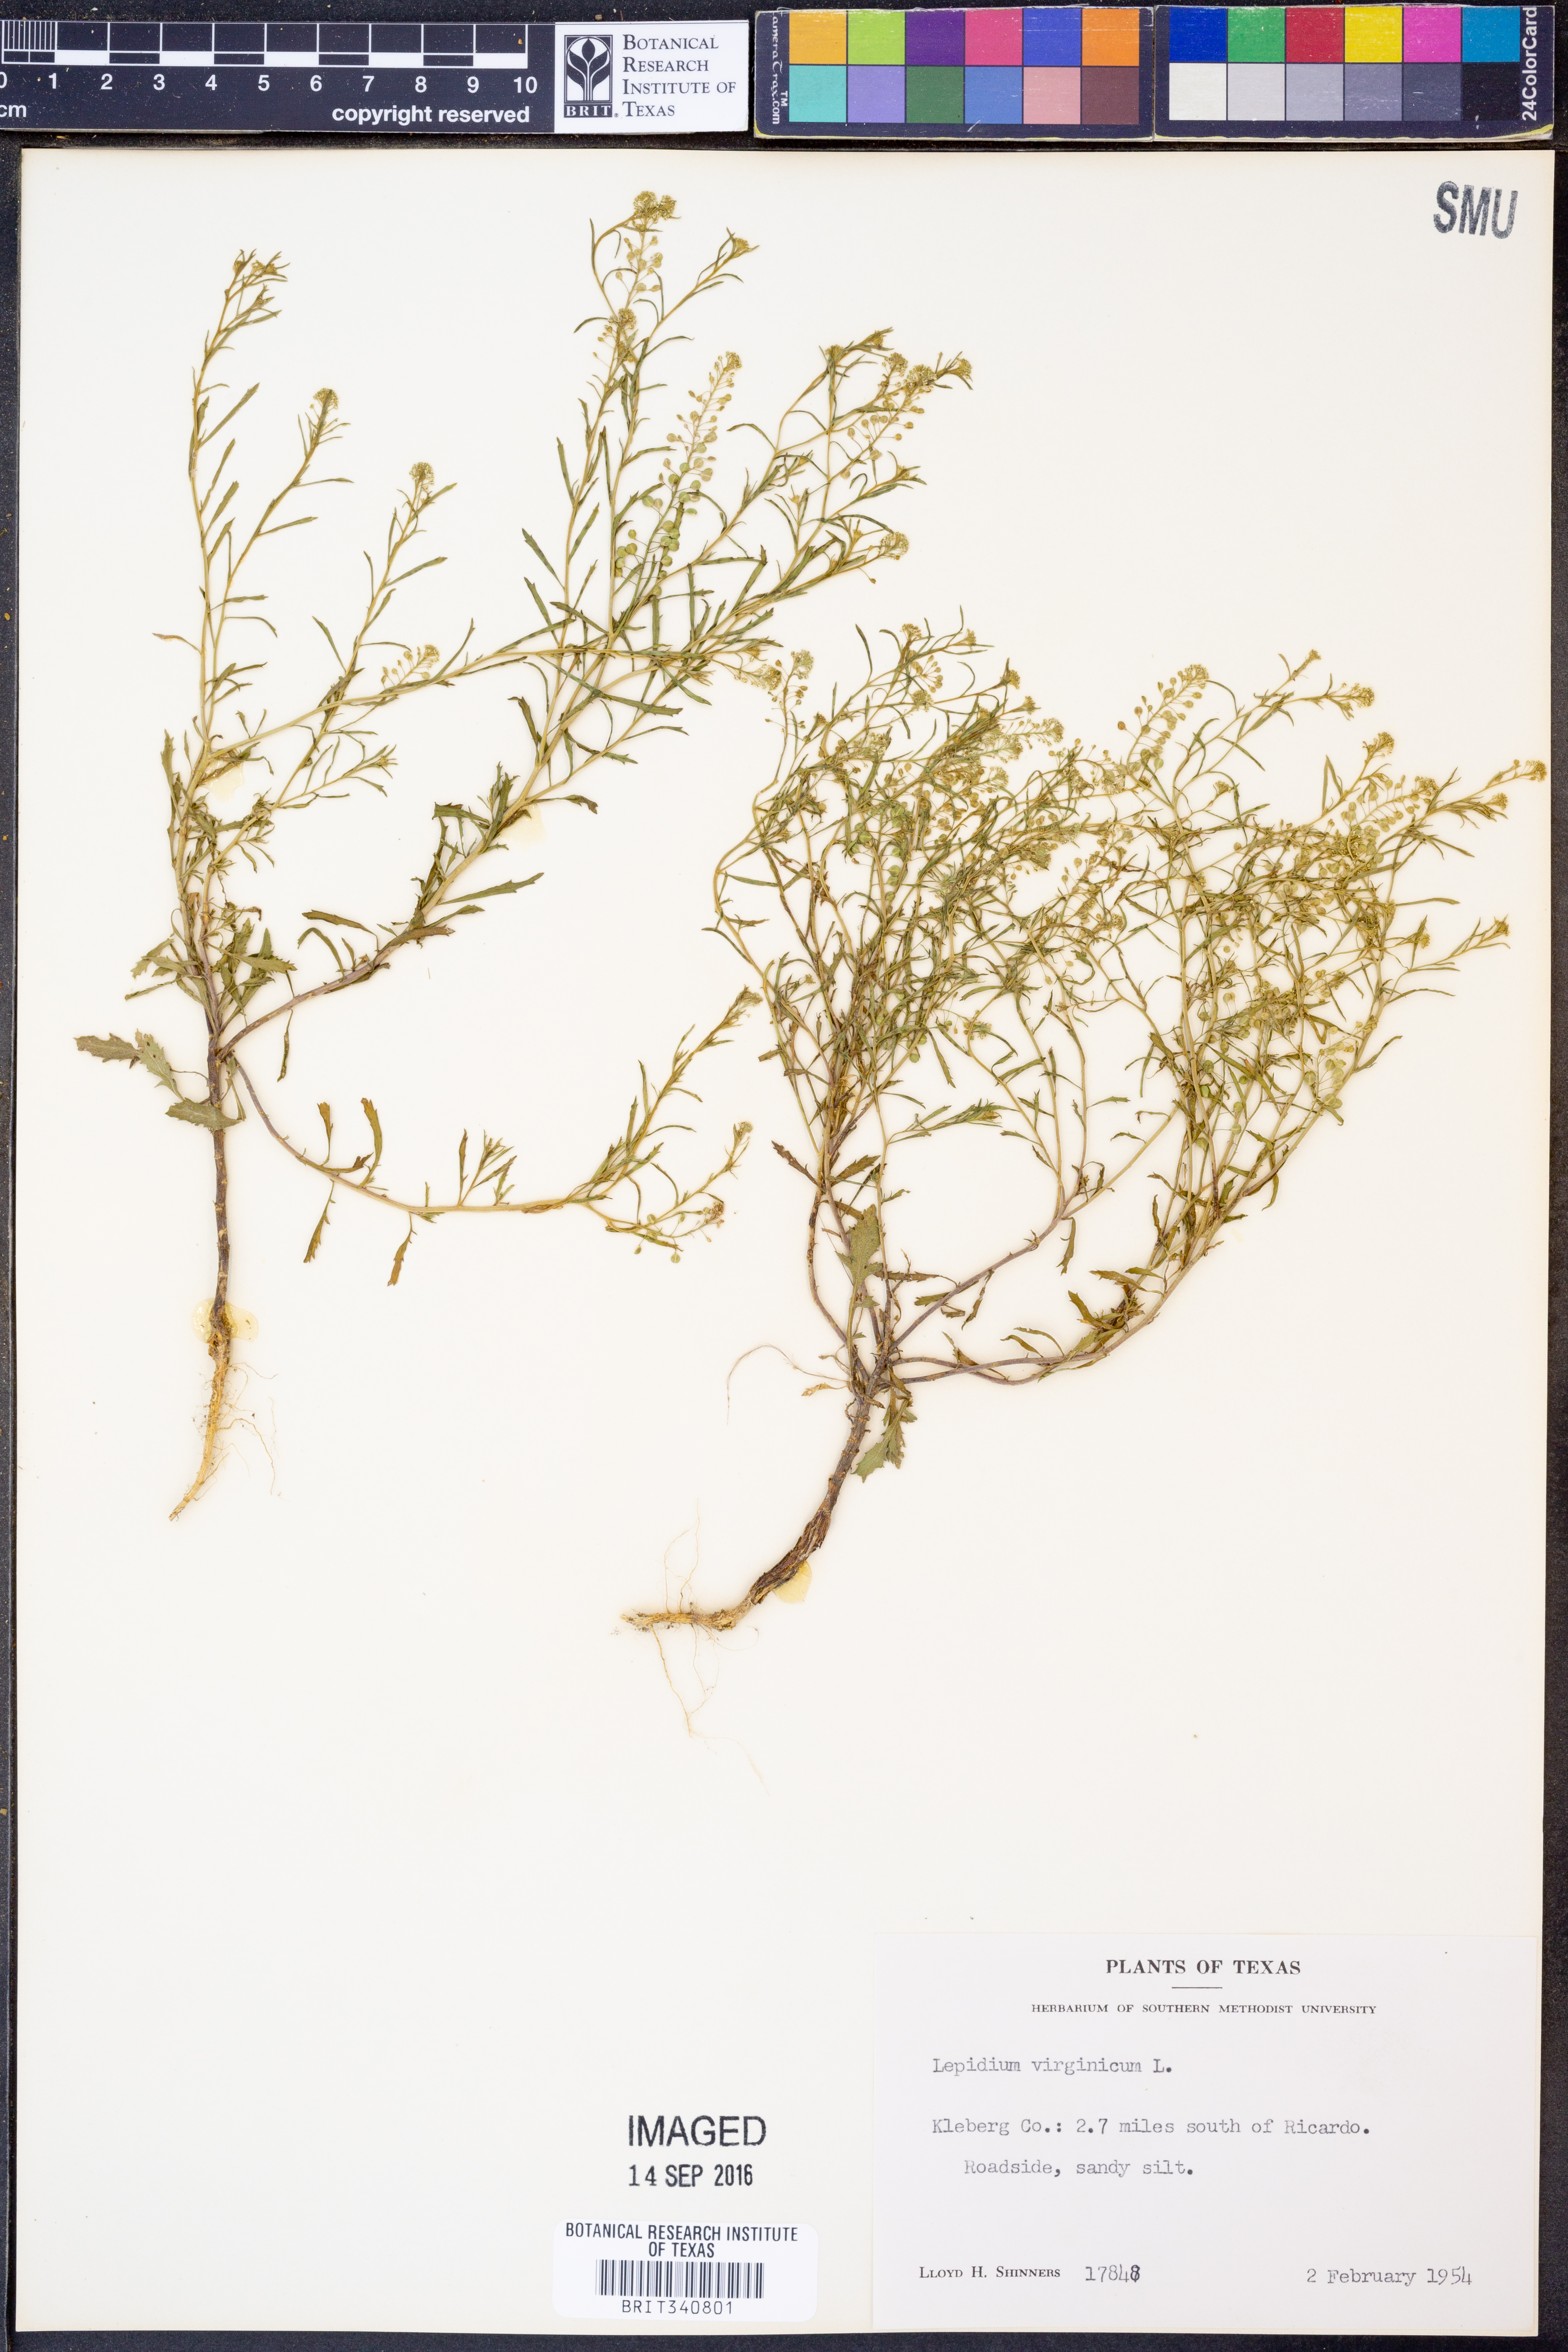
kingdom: Plantae
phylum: Tracheophyta
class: Magnoliopsida
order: Brassicales
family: Brassicaceae
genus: Lepidium
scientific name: Lepidium virginicum
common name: Least pepperwort
